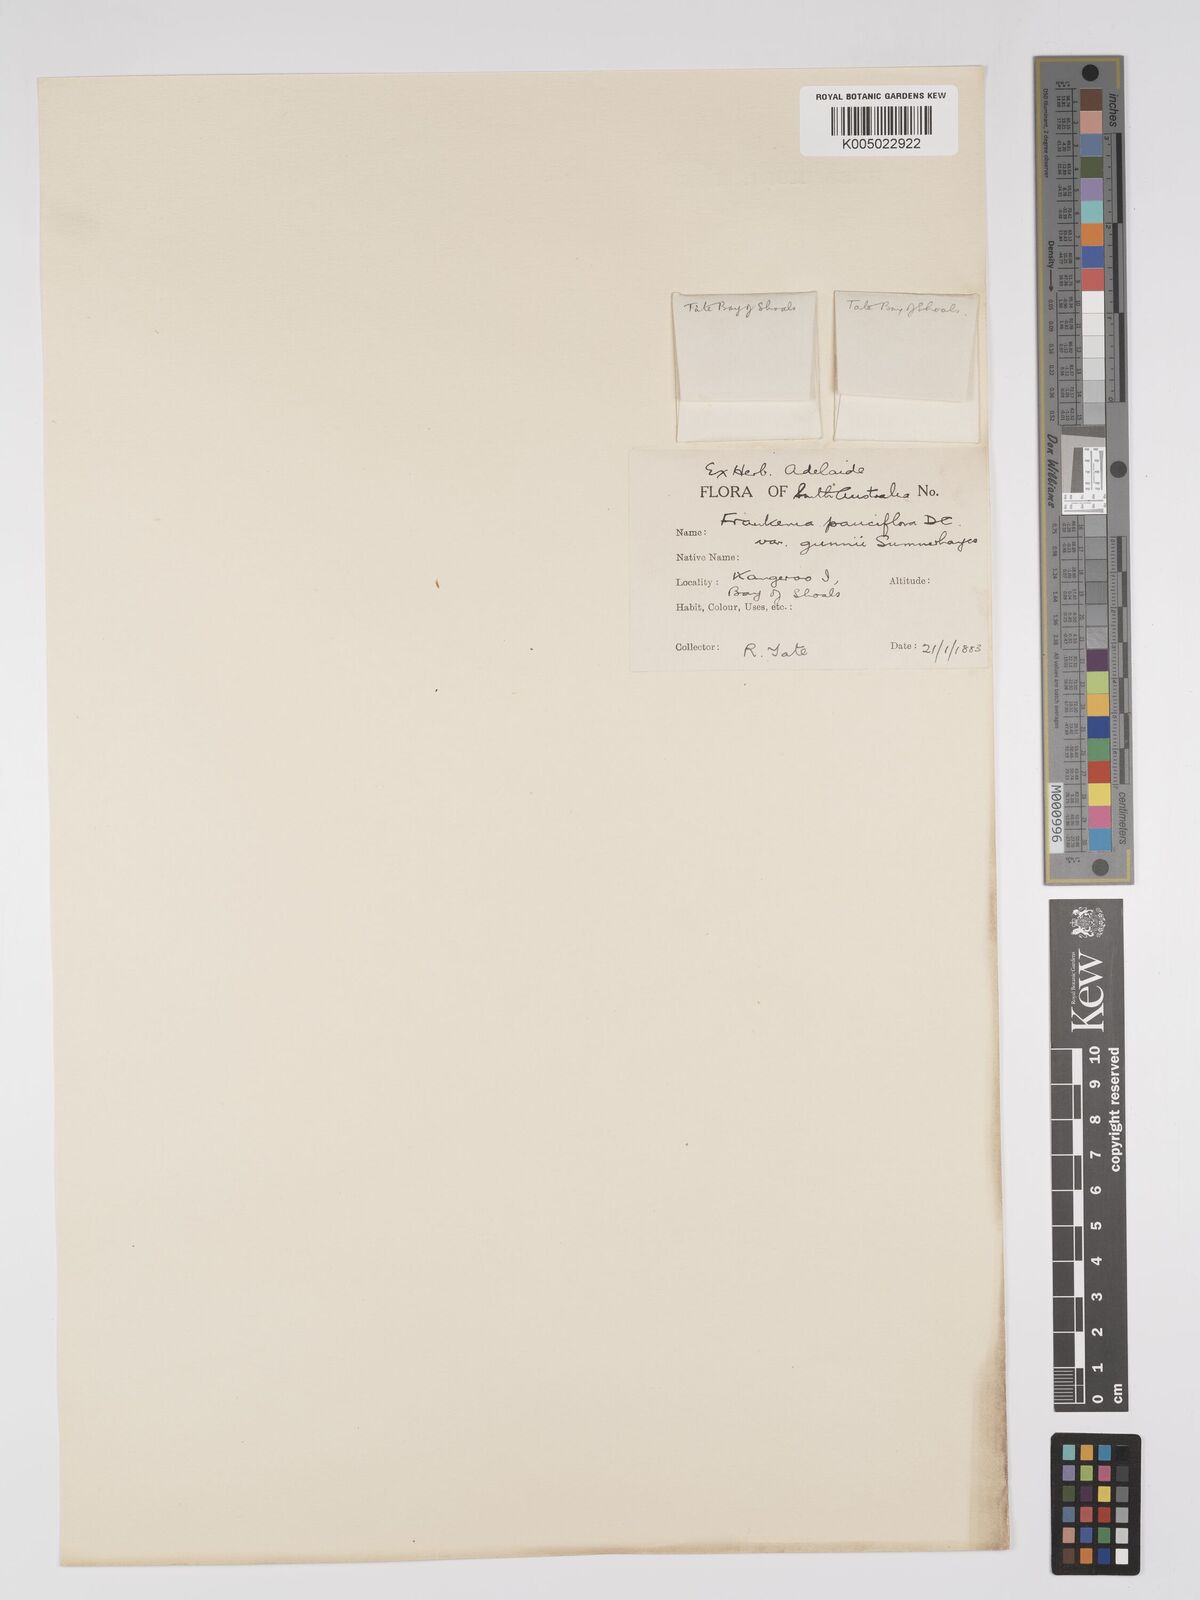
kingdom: Plantae
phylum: Tracheophyta
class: Magnoliopsida
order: Caryophyllales
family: Frankeniaceae
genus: Frankenia
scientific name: Frankenia pauciflora
